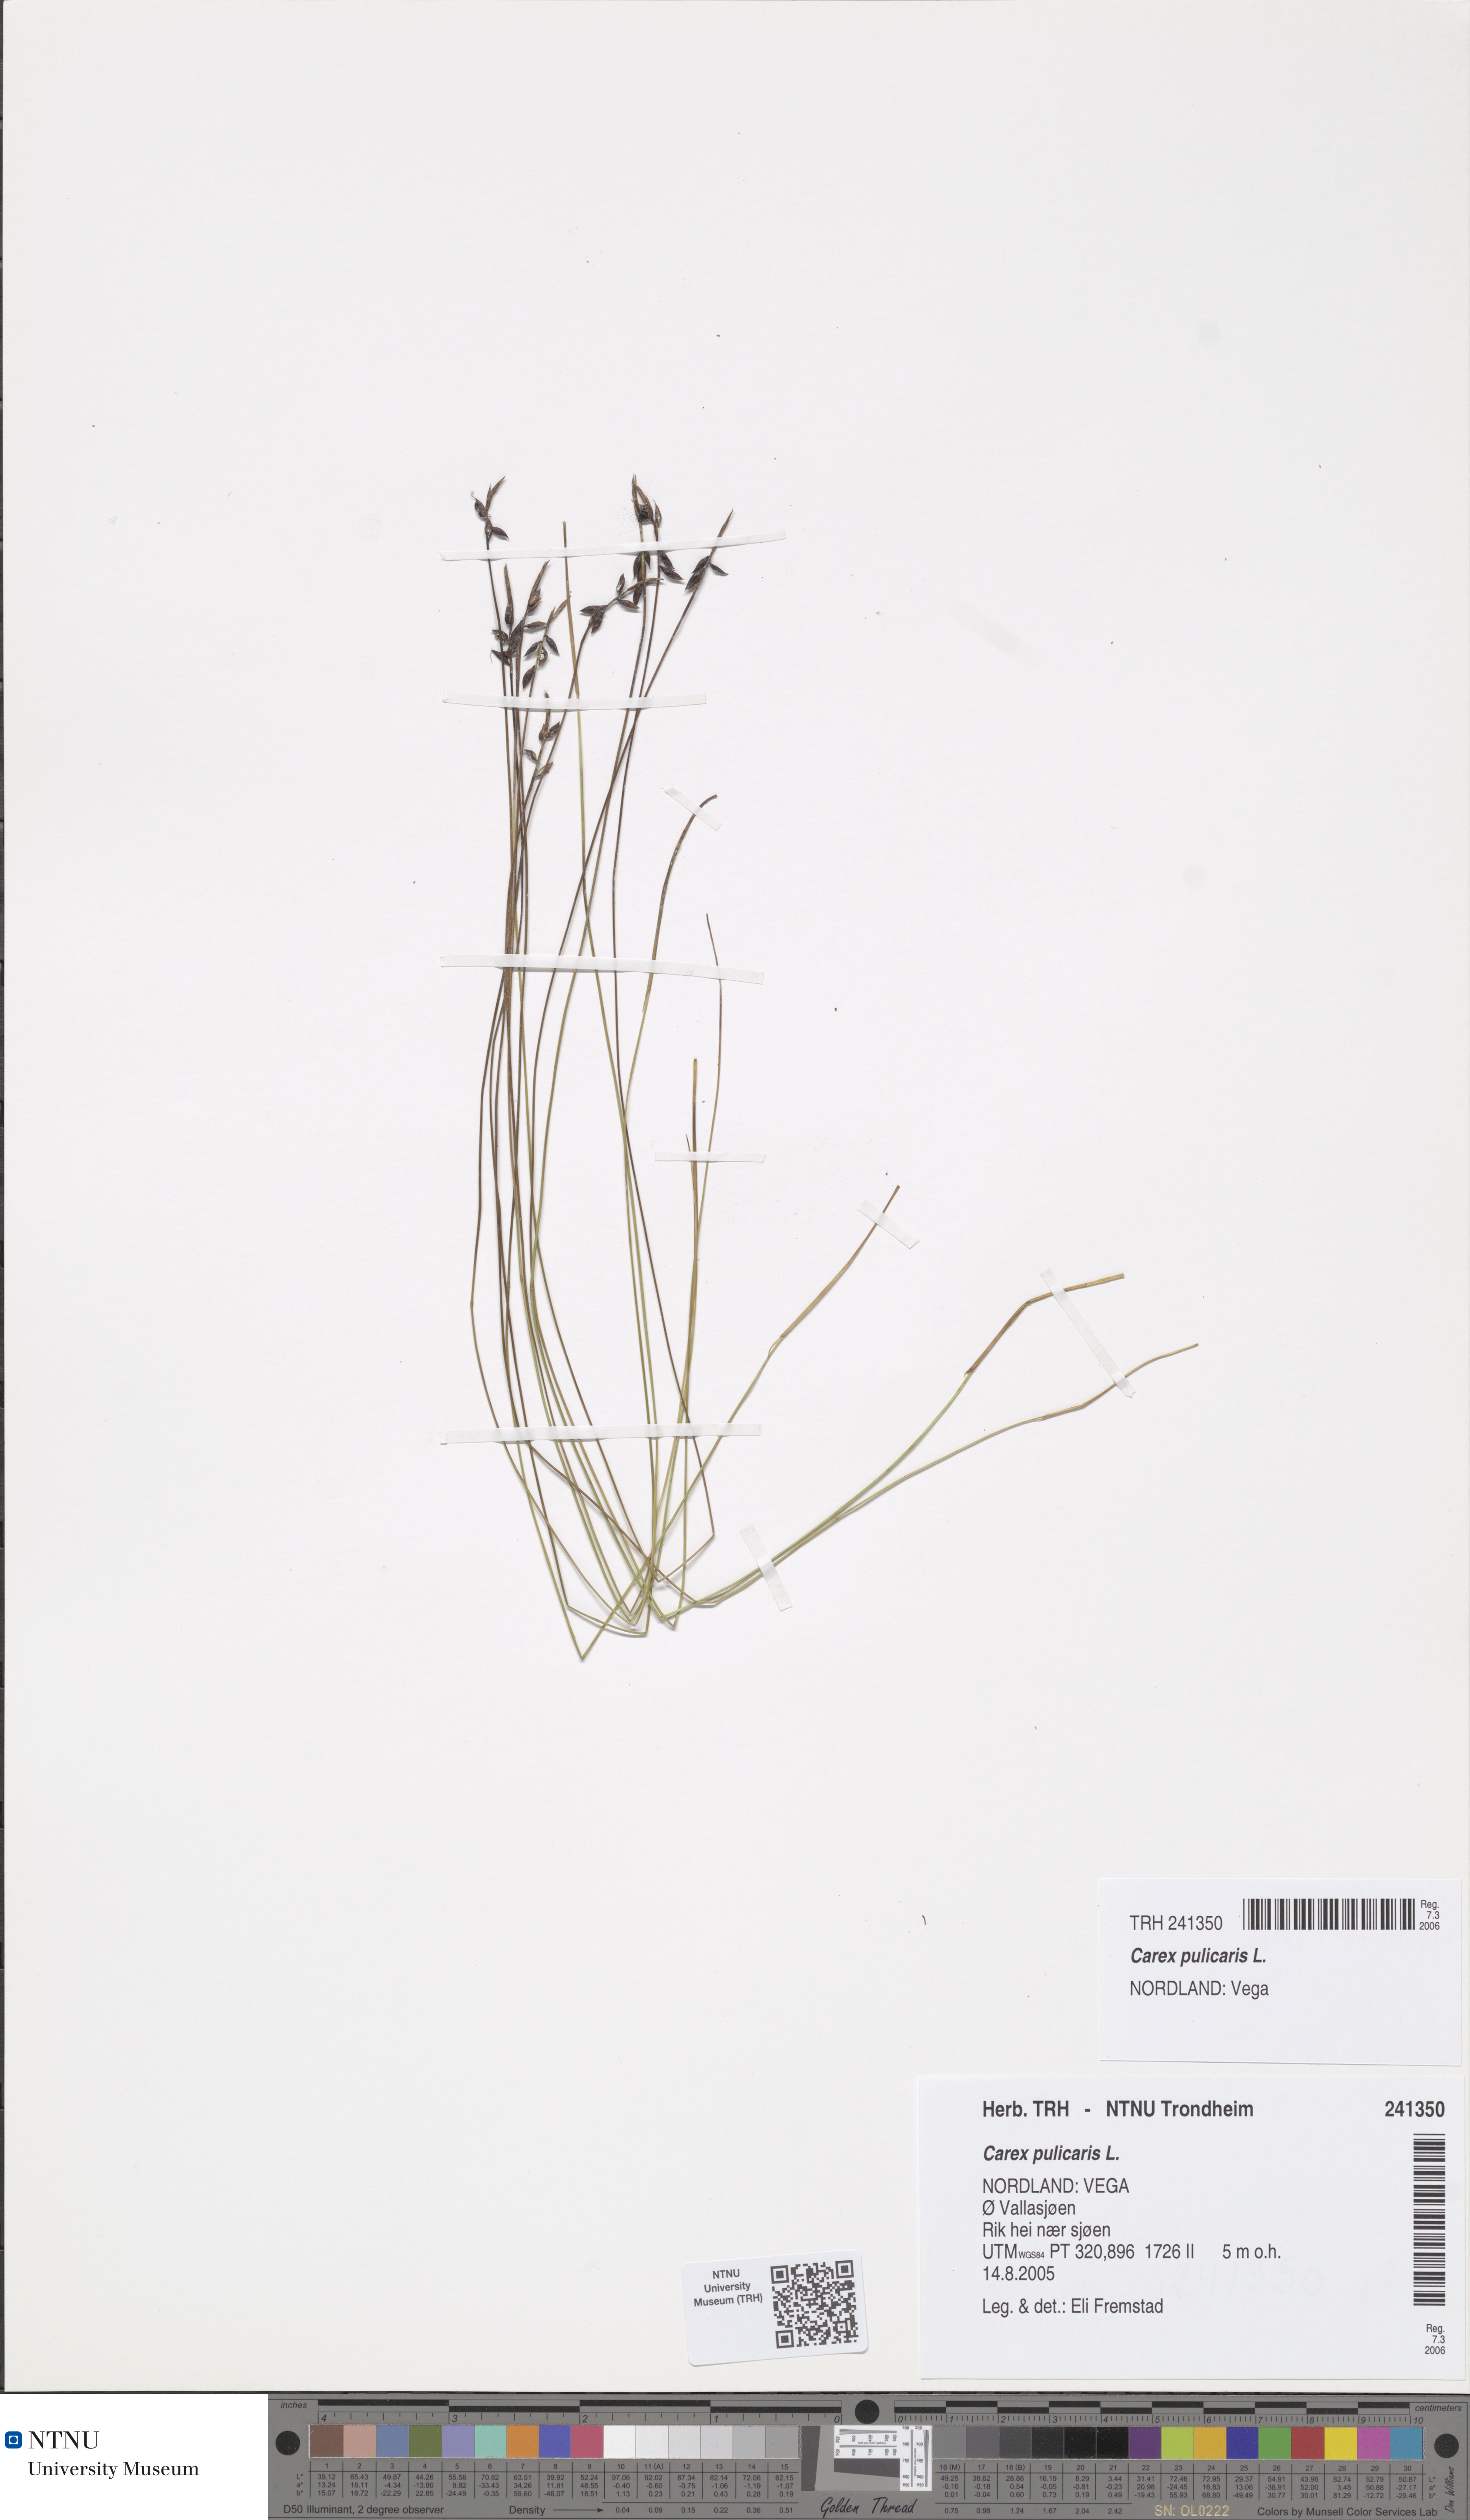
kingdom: Plantae
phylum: Tracheophyta
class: Liliopsida
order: Poales
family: Cyperaceae
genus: Carex
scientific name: Carex pulicaris
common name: Flea sedge
